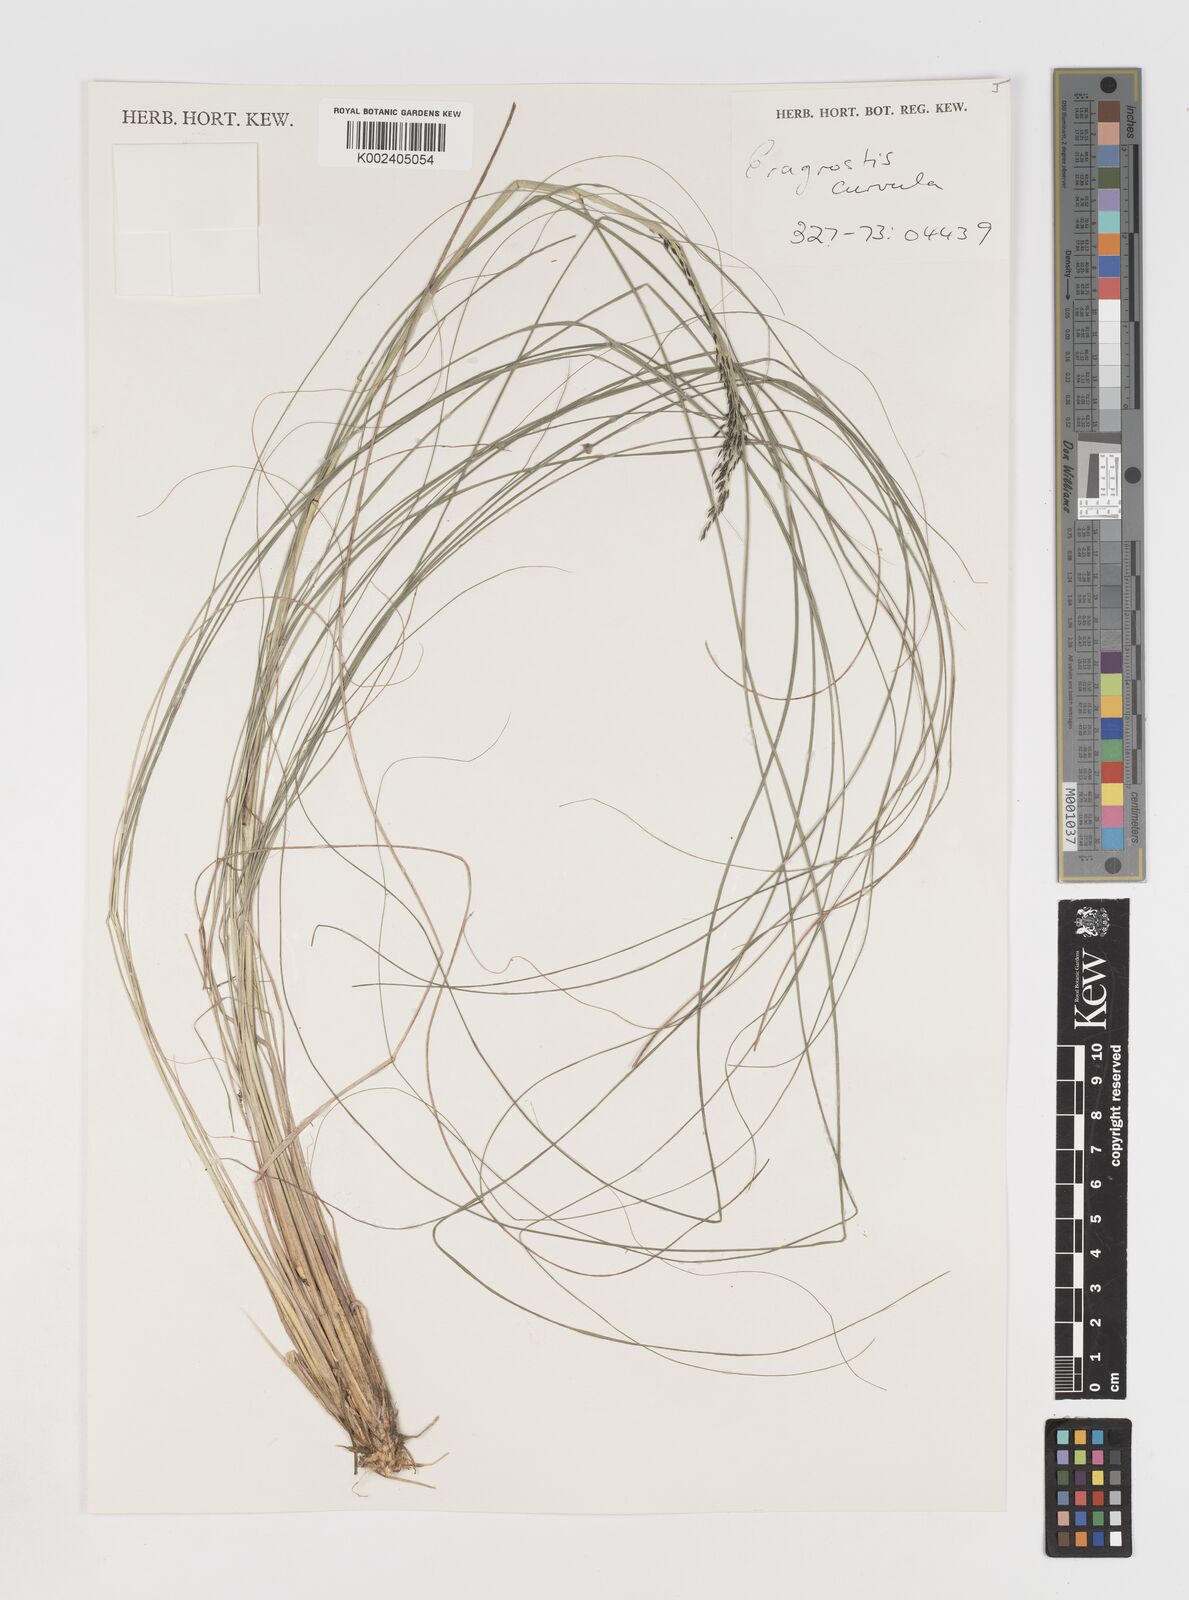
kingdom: Plantae
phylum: Tracheophyta
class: Liliopsida
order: Poales
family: Poaceae
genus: Eragrostis
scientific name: Eragrostis curvula
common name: African love-grass
